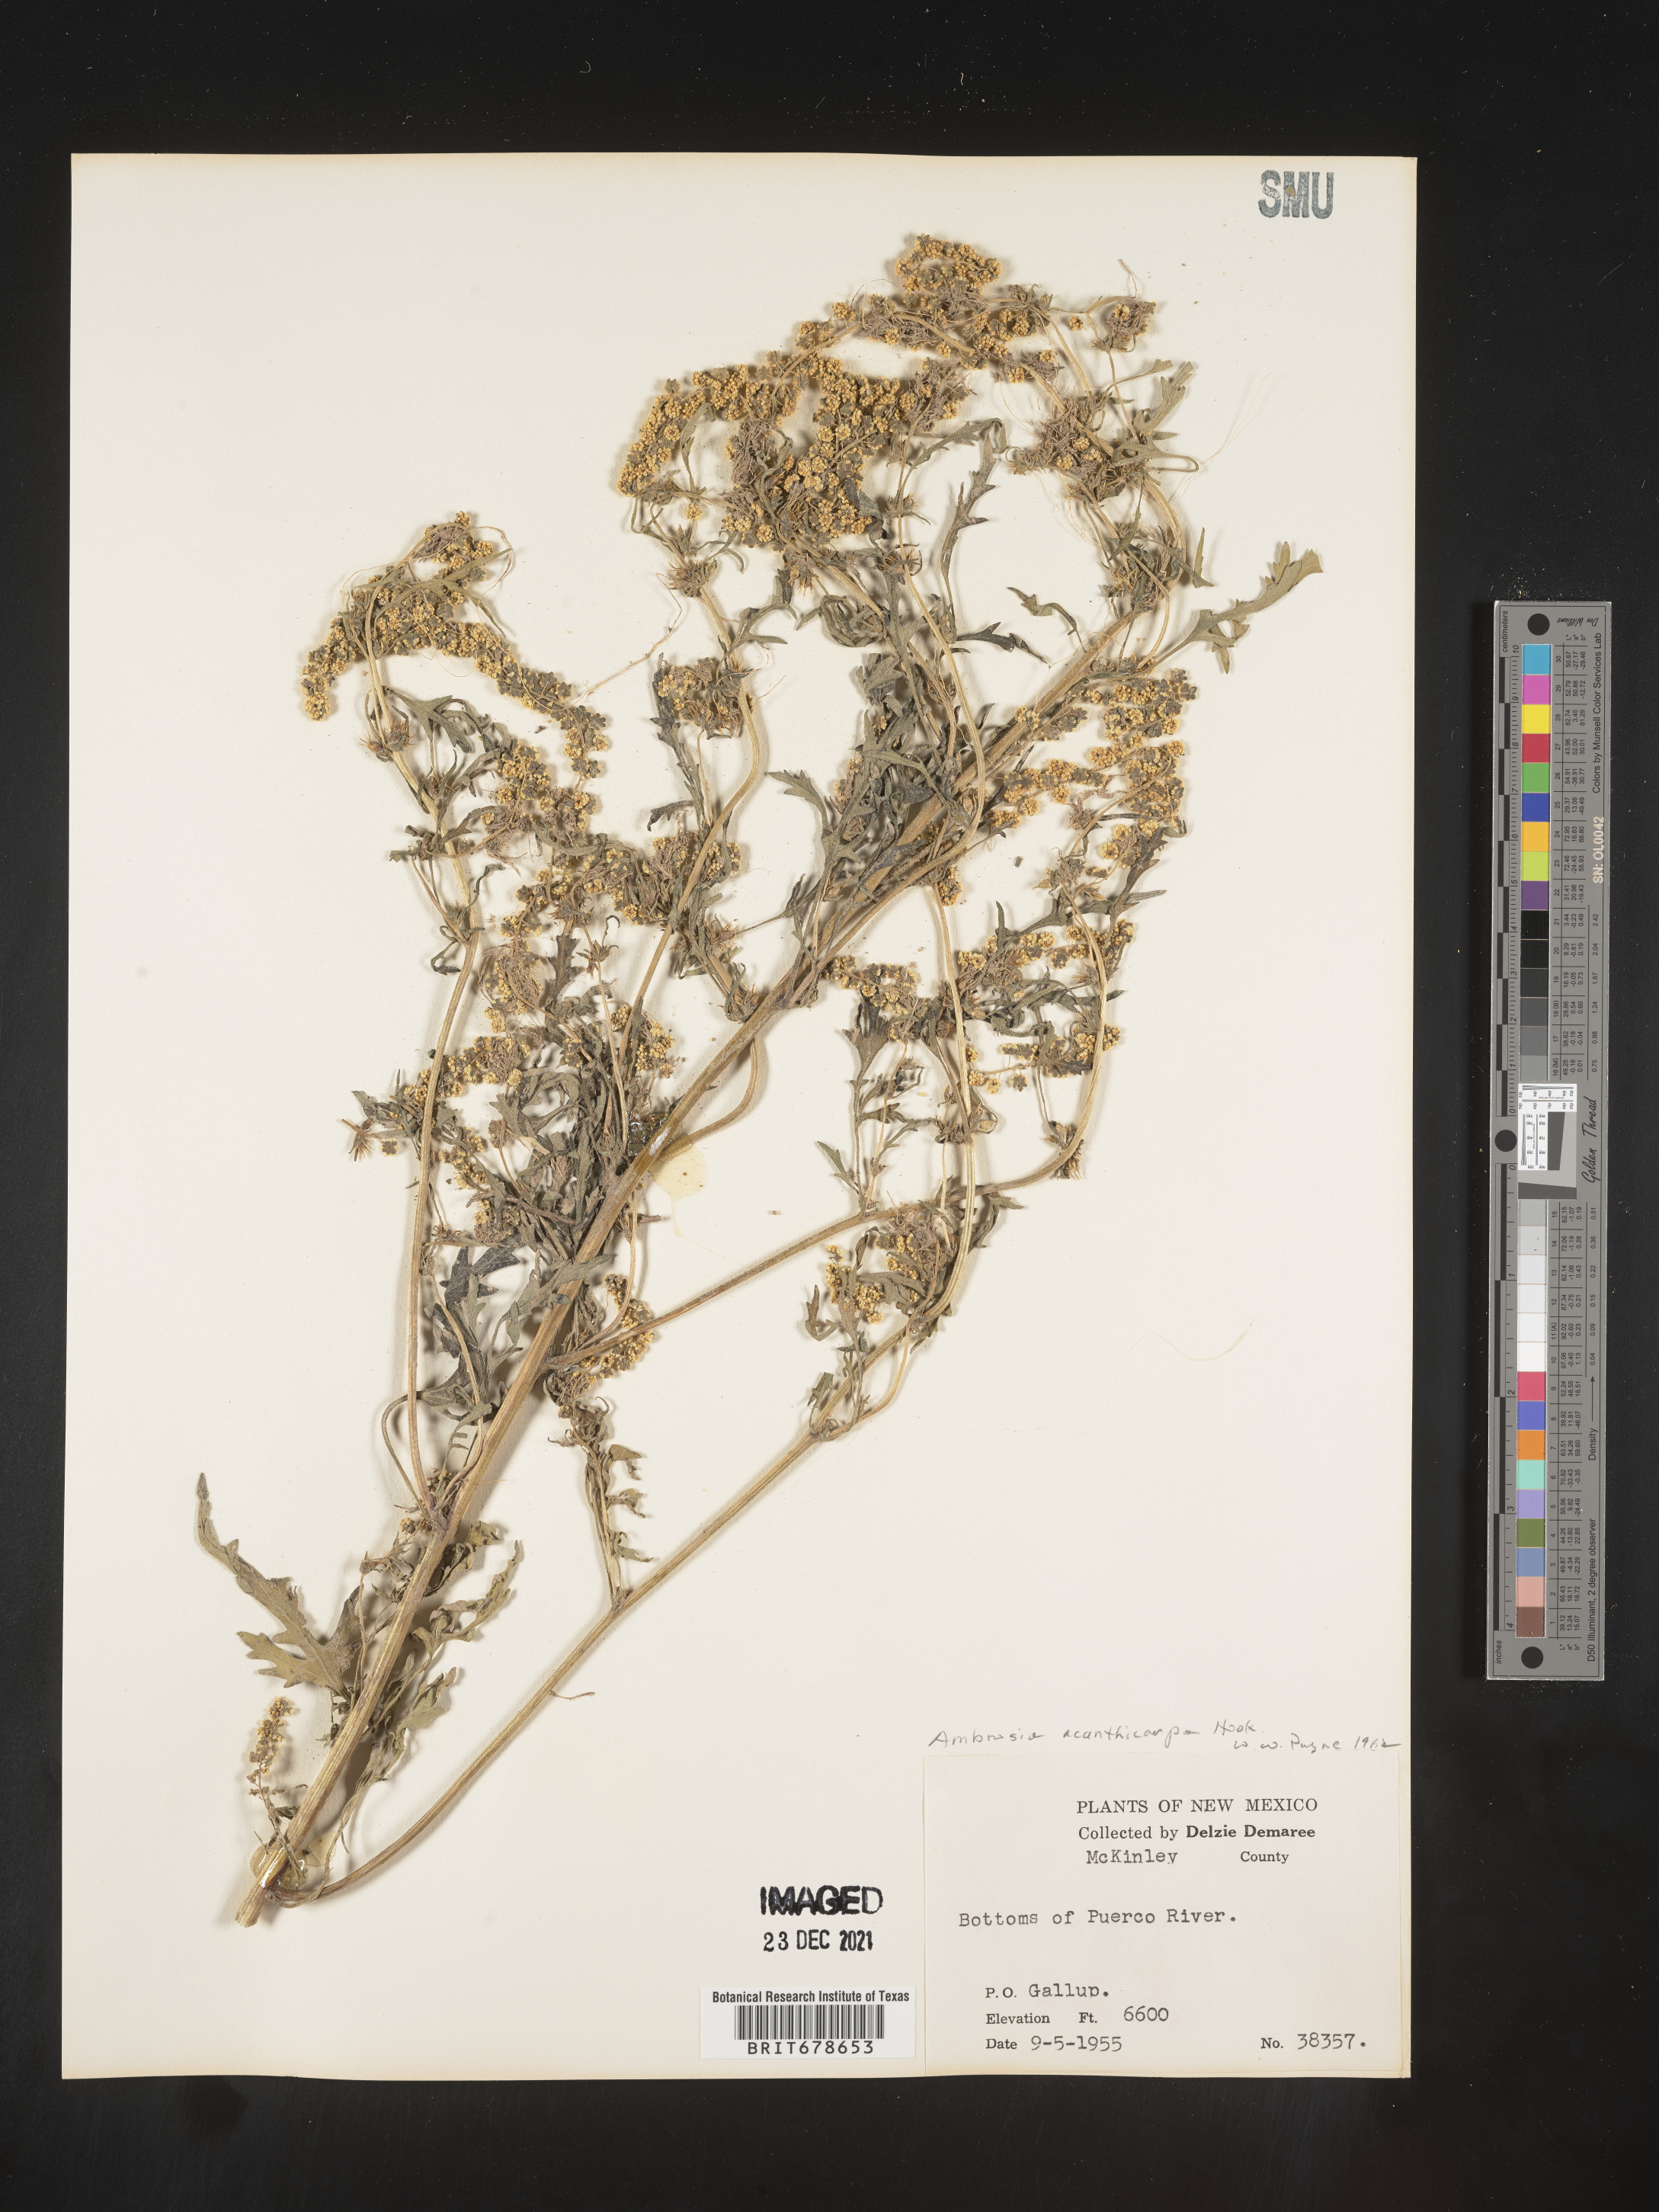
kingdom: Plantae
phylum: Tracheophyta
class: Magnoliopsida
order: Asterales
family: Asteraceae
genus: Ambrosia
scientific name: Ambrosia acanthicarpa
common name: Hooker's bur ragweed
